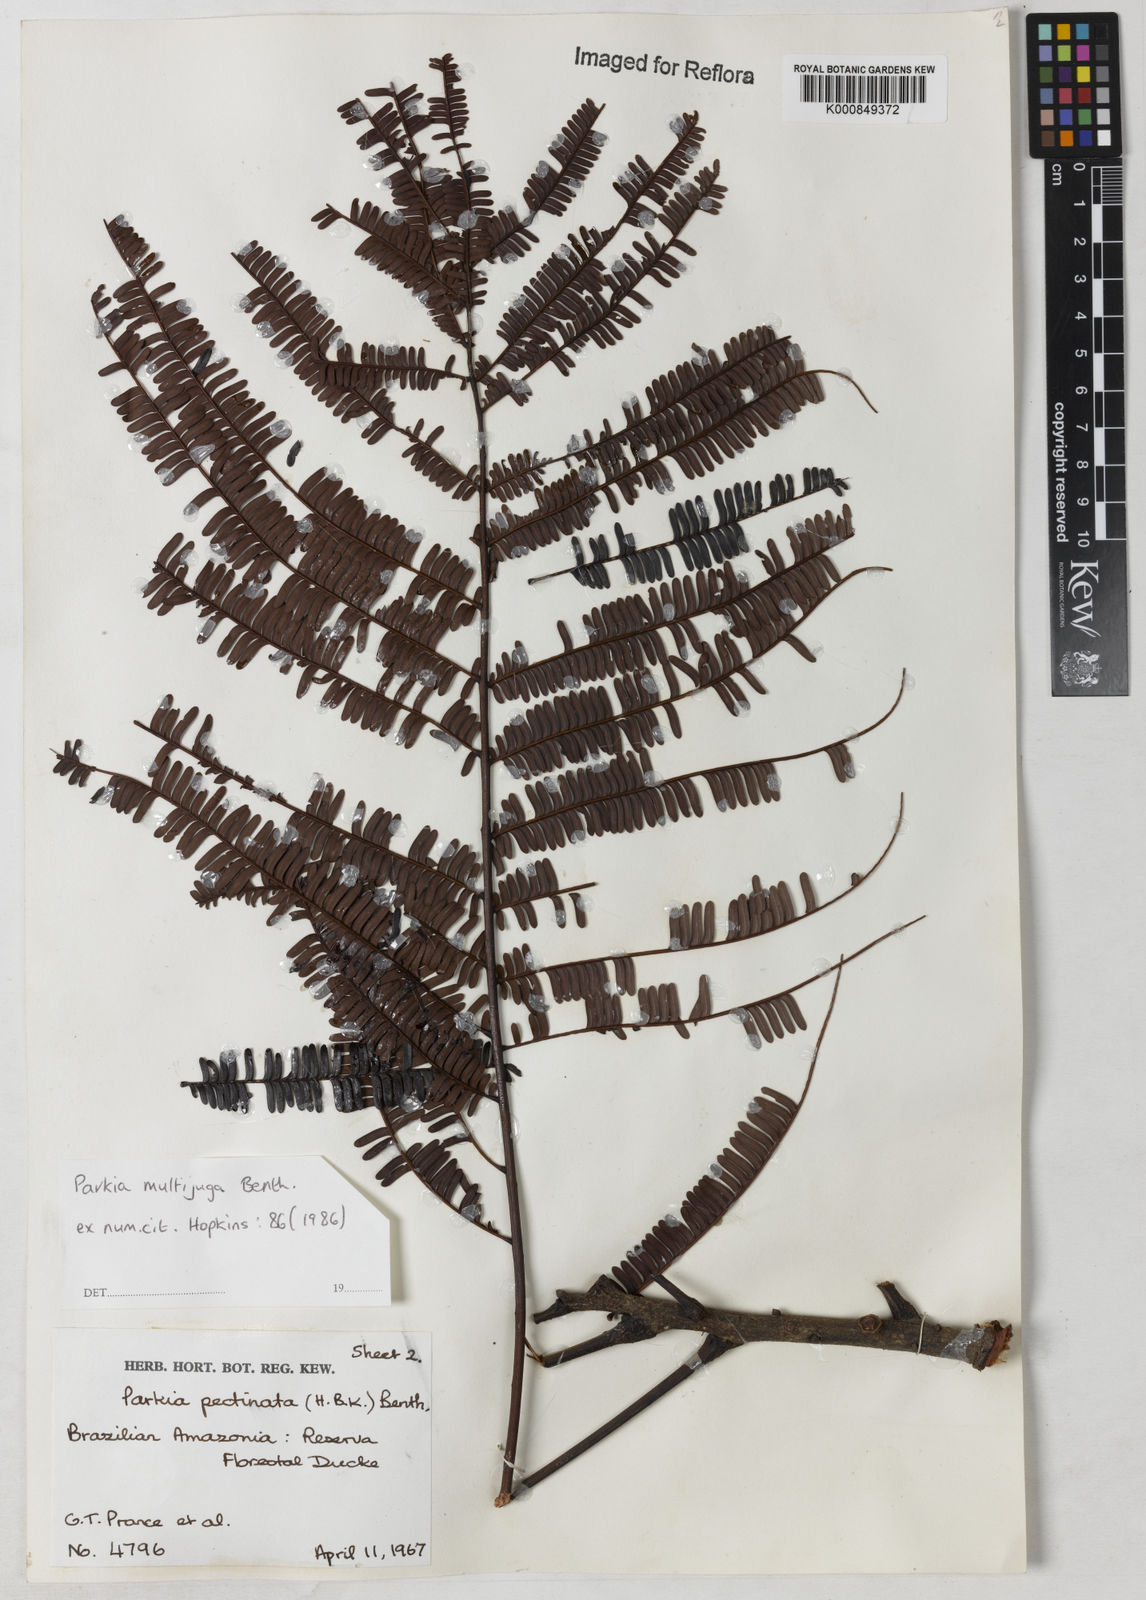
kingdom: Plantae
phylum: Tracheophyta
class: Magnoliopsida
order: Fabales
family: Fabaceae
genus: Parkia
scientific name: Parkia multijuga
